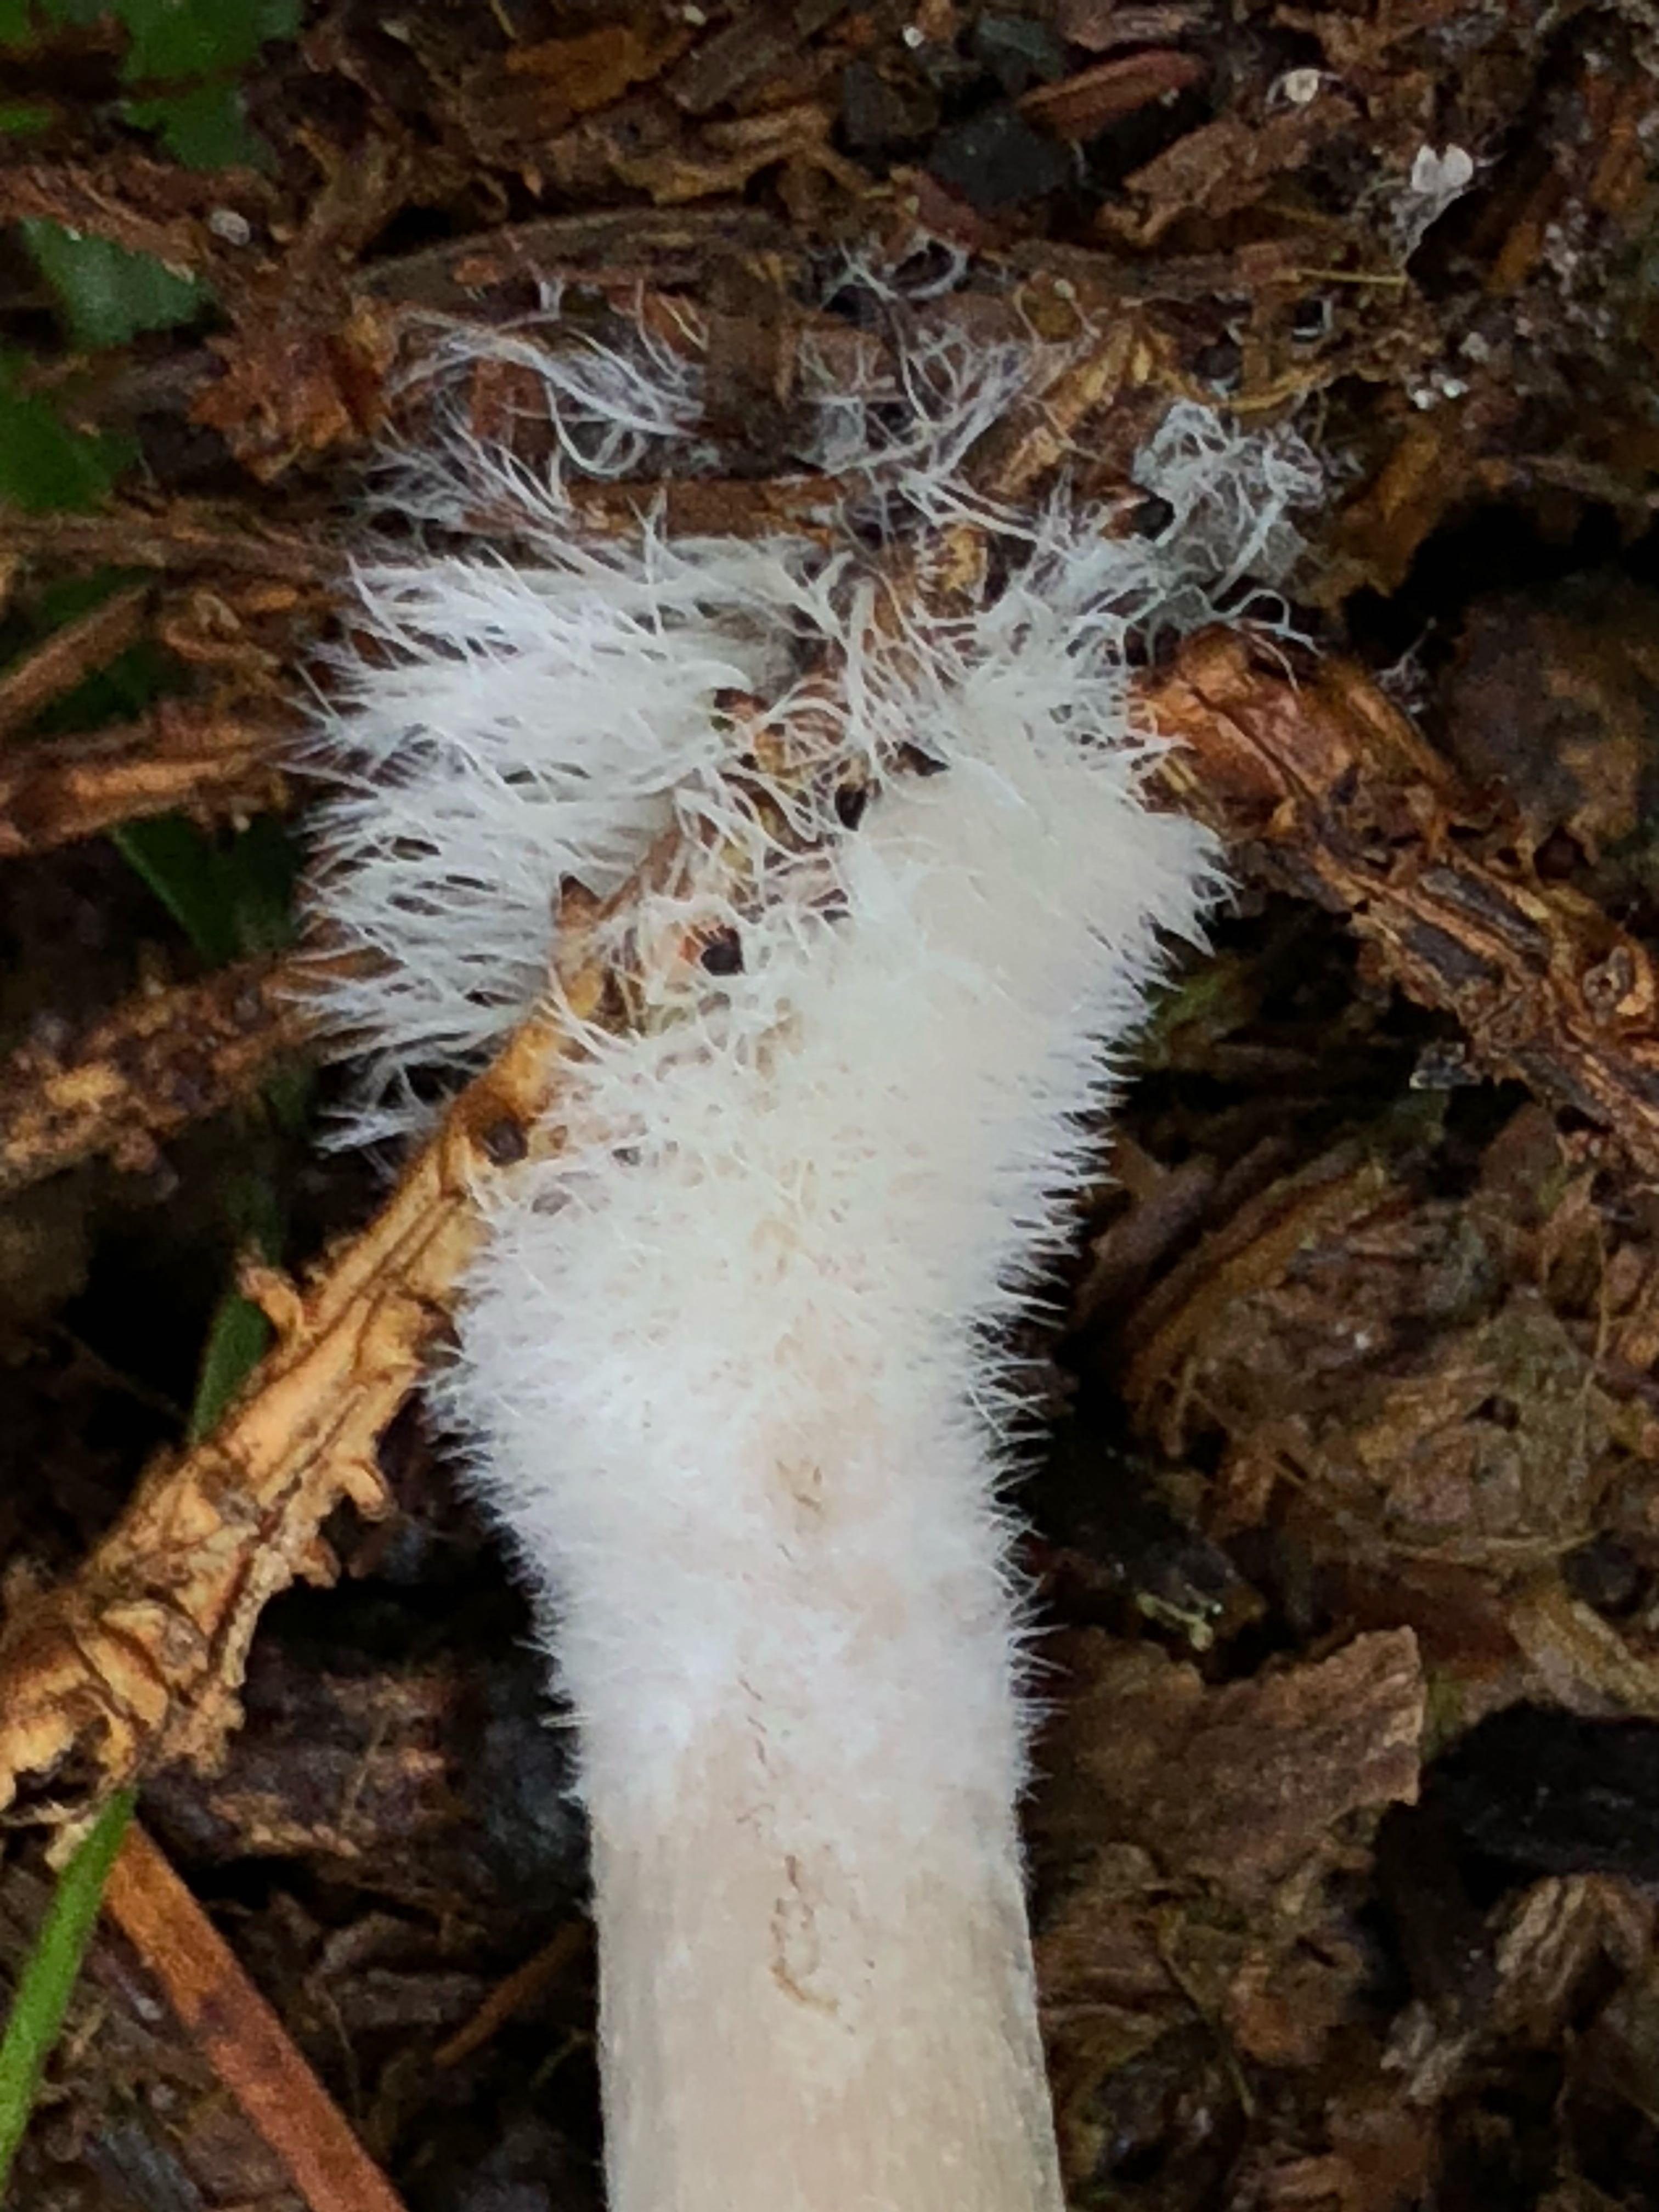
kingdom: Fungi
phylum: Basidiomycota
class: Agaricomycetes
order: Agaricales
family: Psathyrellaceae
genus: Psathyrella
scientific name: Psathyrella
